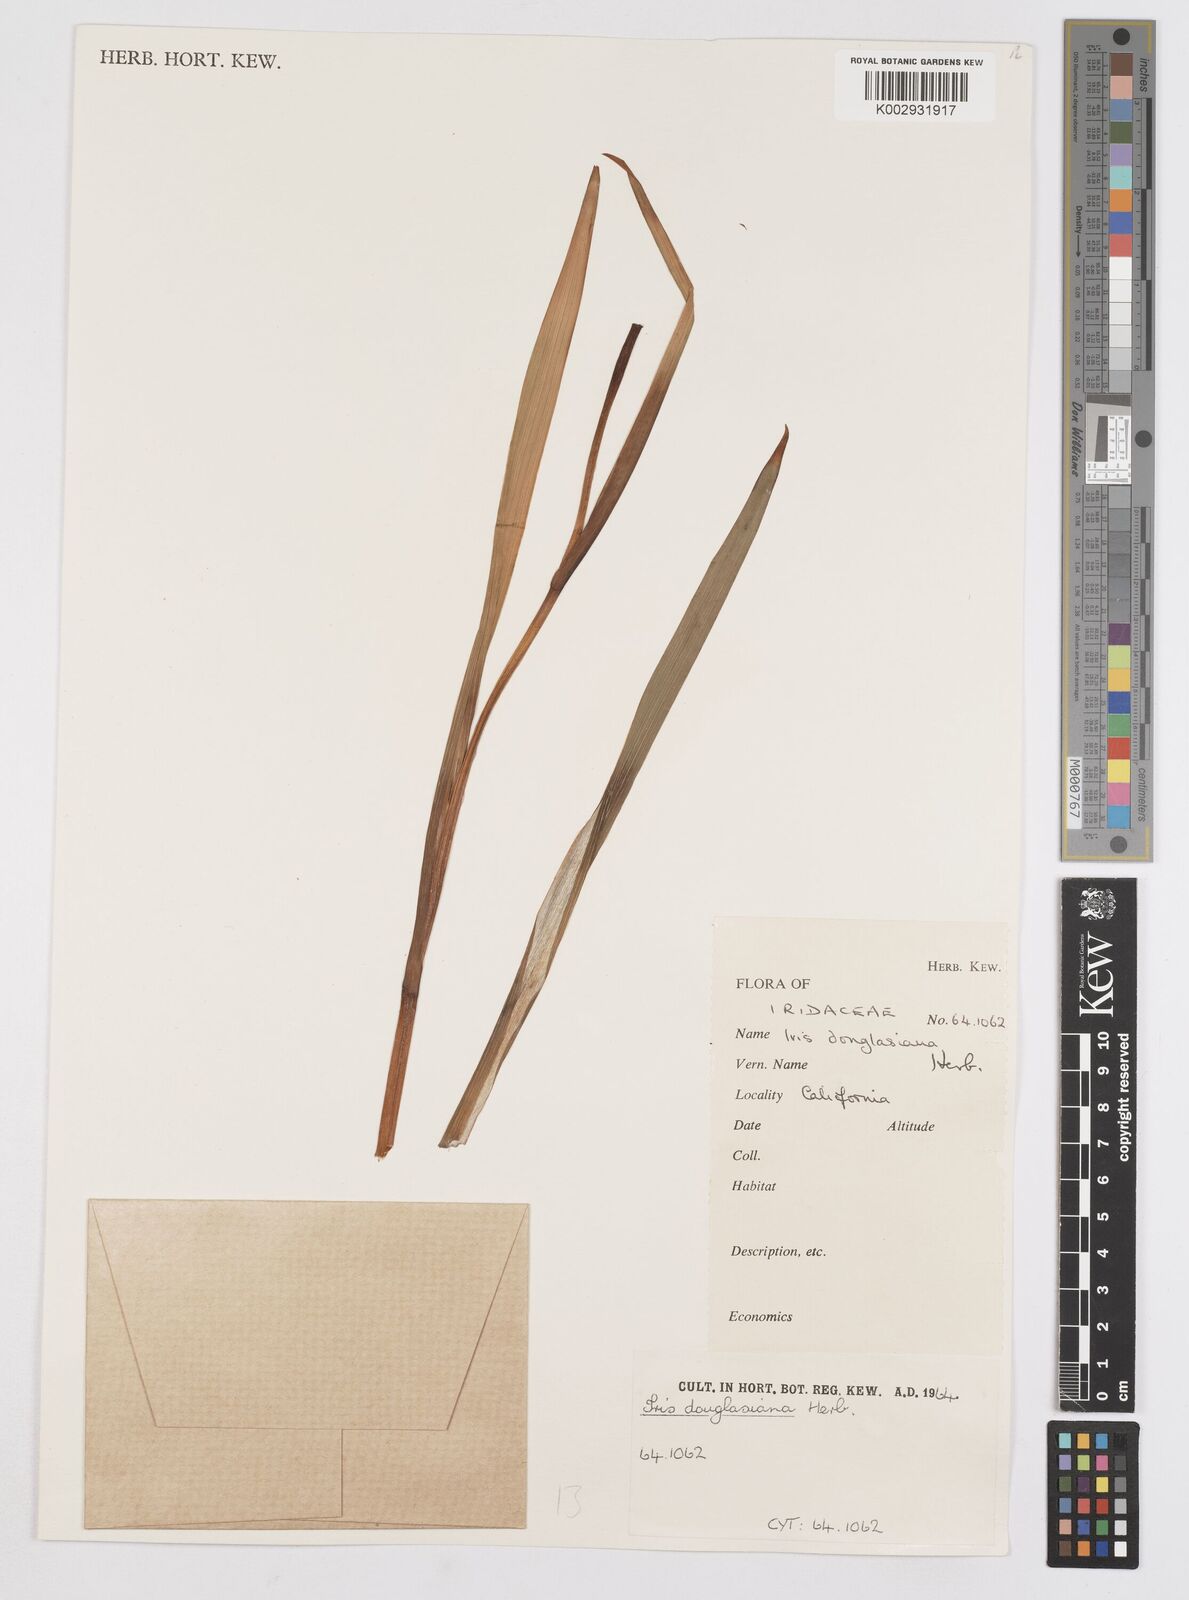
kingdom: Plantae
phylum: Tracheophyta
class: Liliopsida
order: Asparagales
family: Iridaceae
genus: Iris
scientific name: Iris douglasiana
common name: Marin iris
